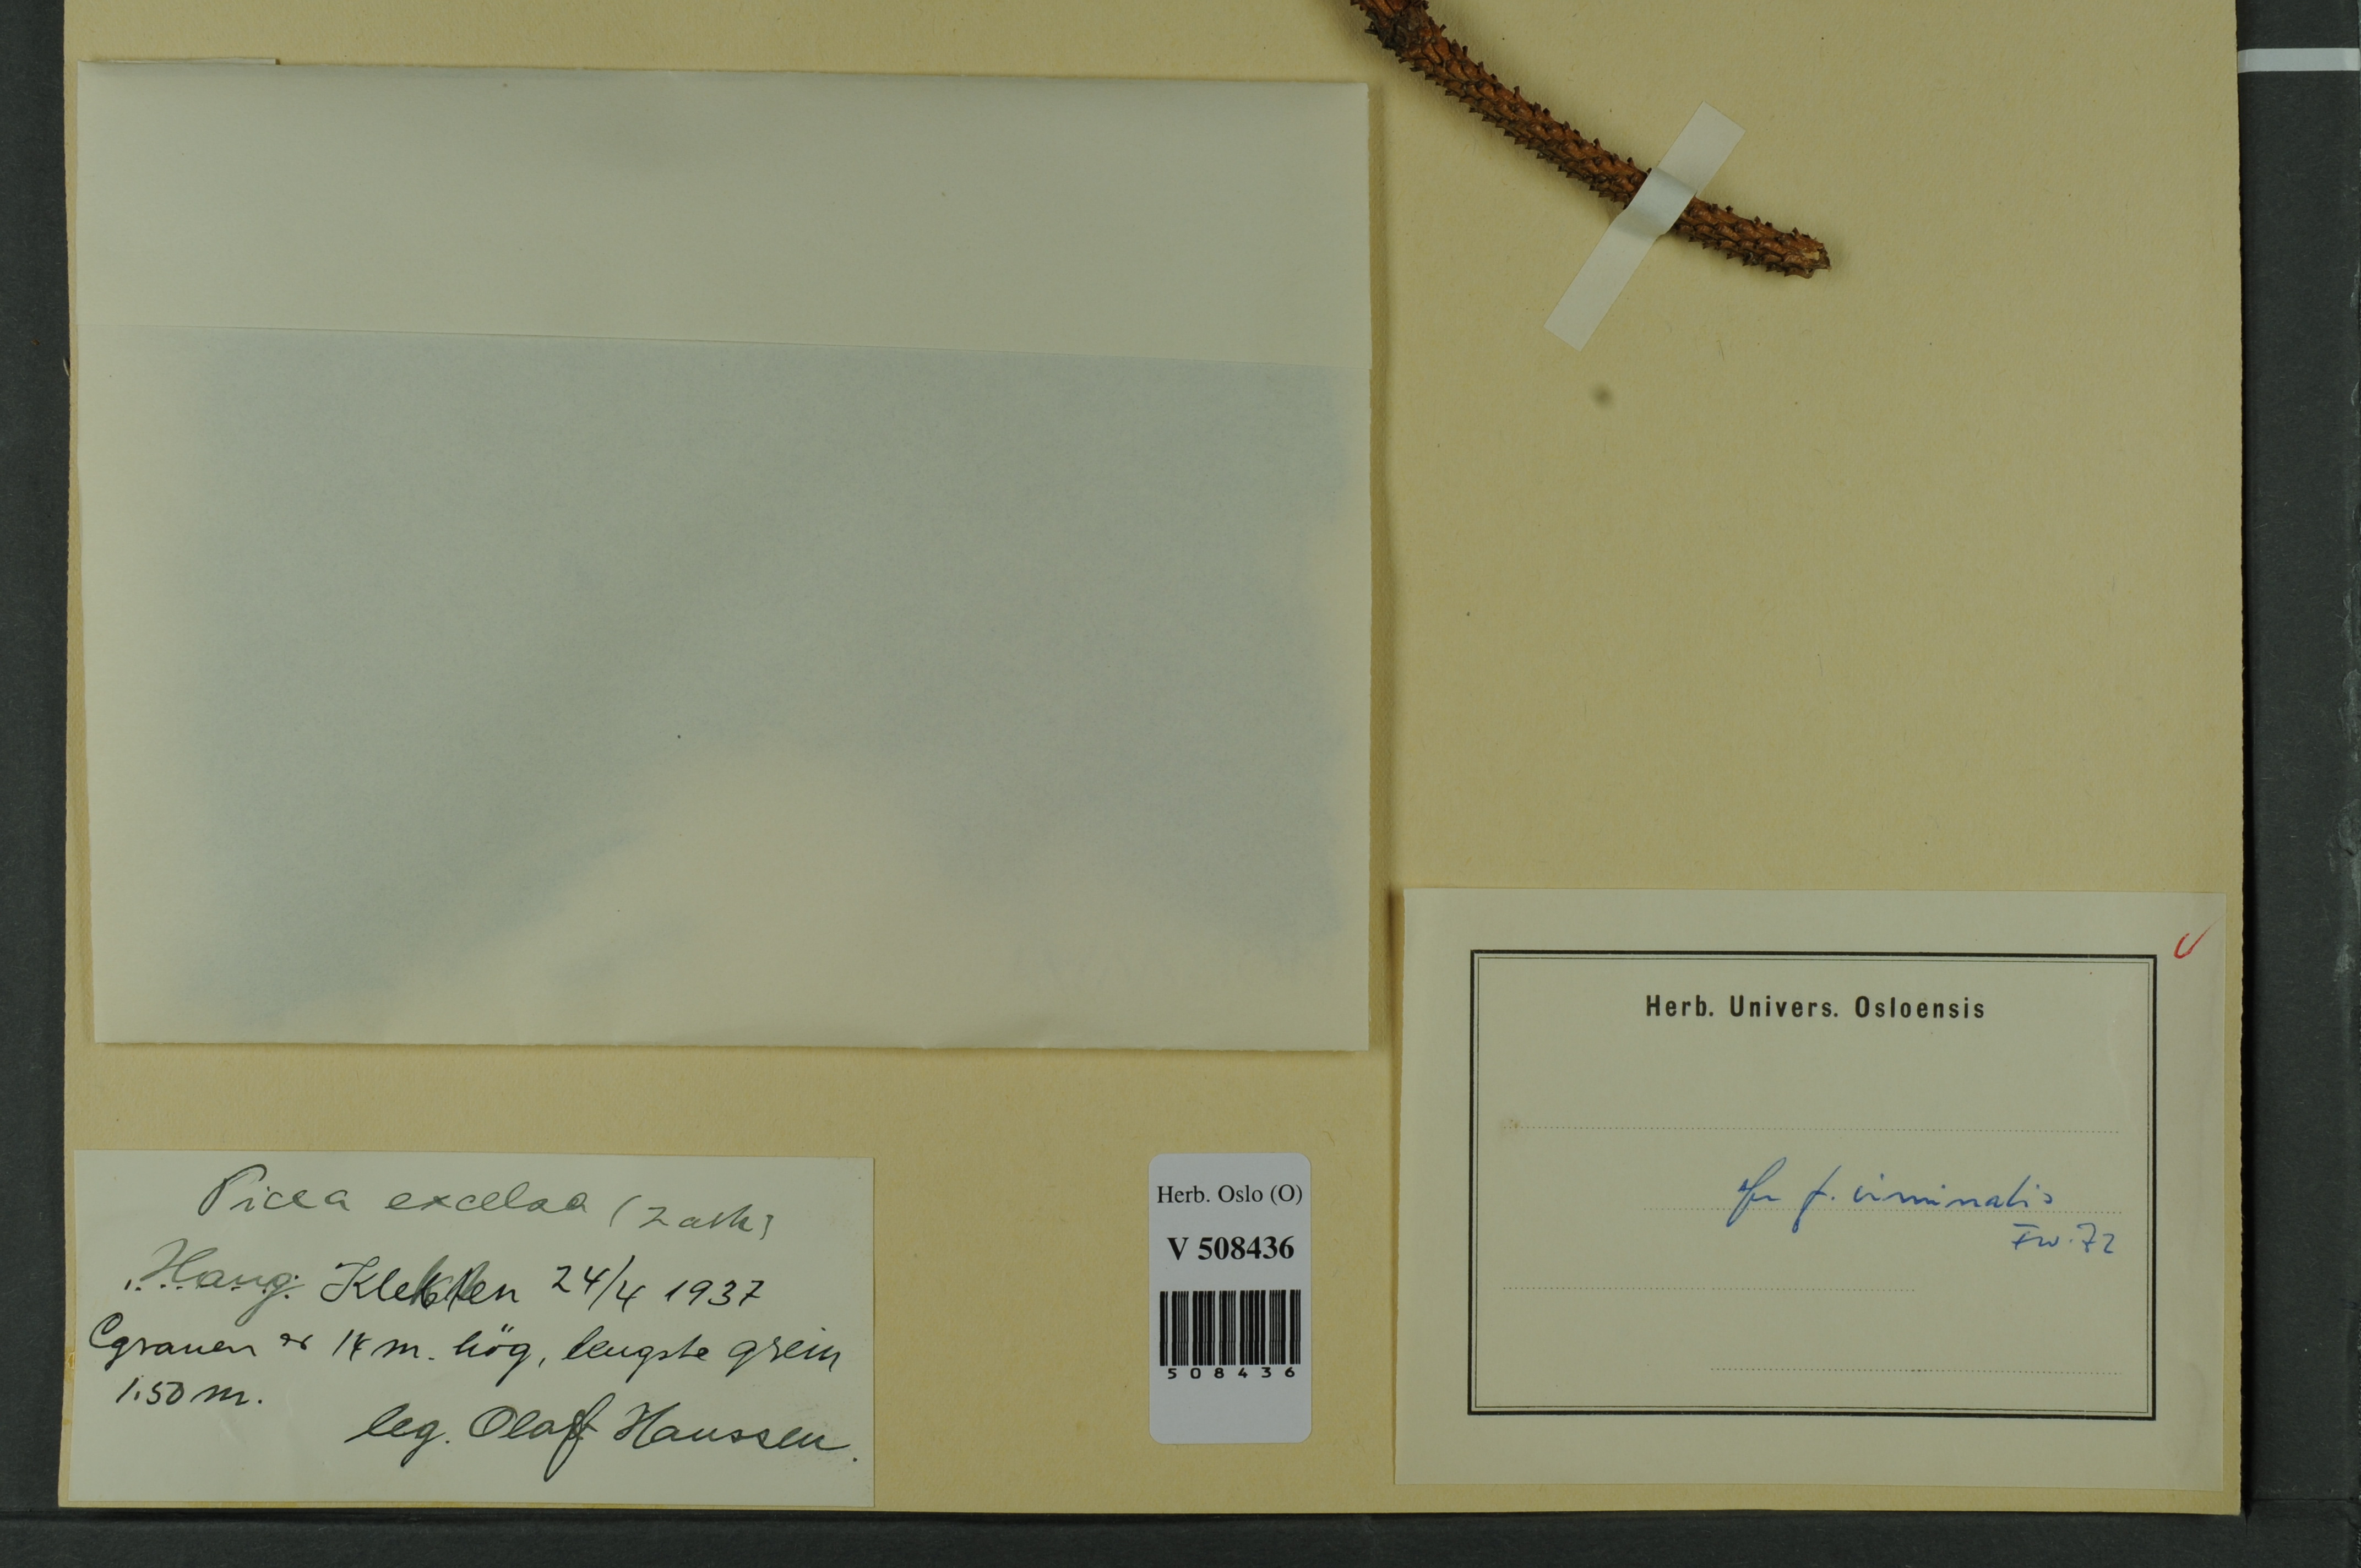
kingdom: Plantae
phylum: Tracheophyta
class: Pinopsida
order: Pinales
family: Pinaceae
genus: Picea
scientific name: Picea abies
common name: Norway spruce
